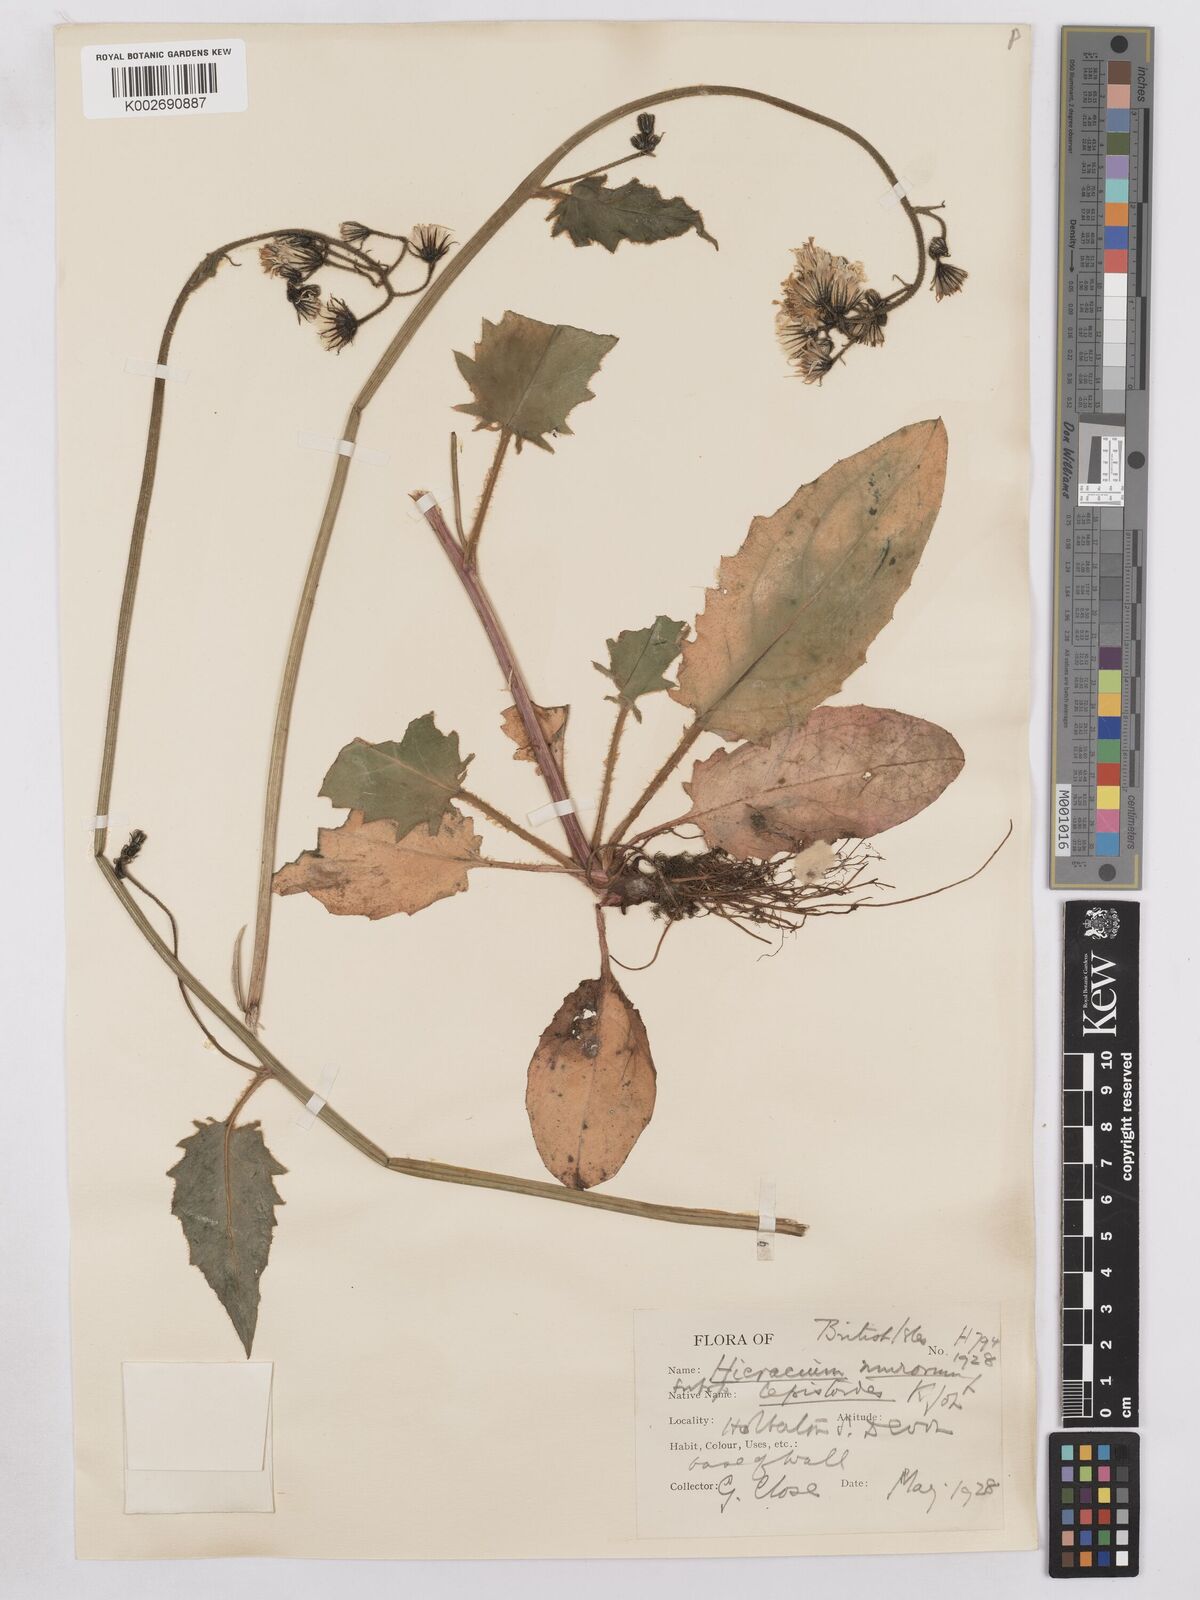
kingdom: Plantae
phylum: Tracheophyta
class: Magnoliopsida
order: Asterales
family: Asteraceae
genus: Hieracium
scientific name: Hieracium murorum
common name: Wall hawkweed
